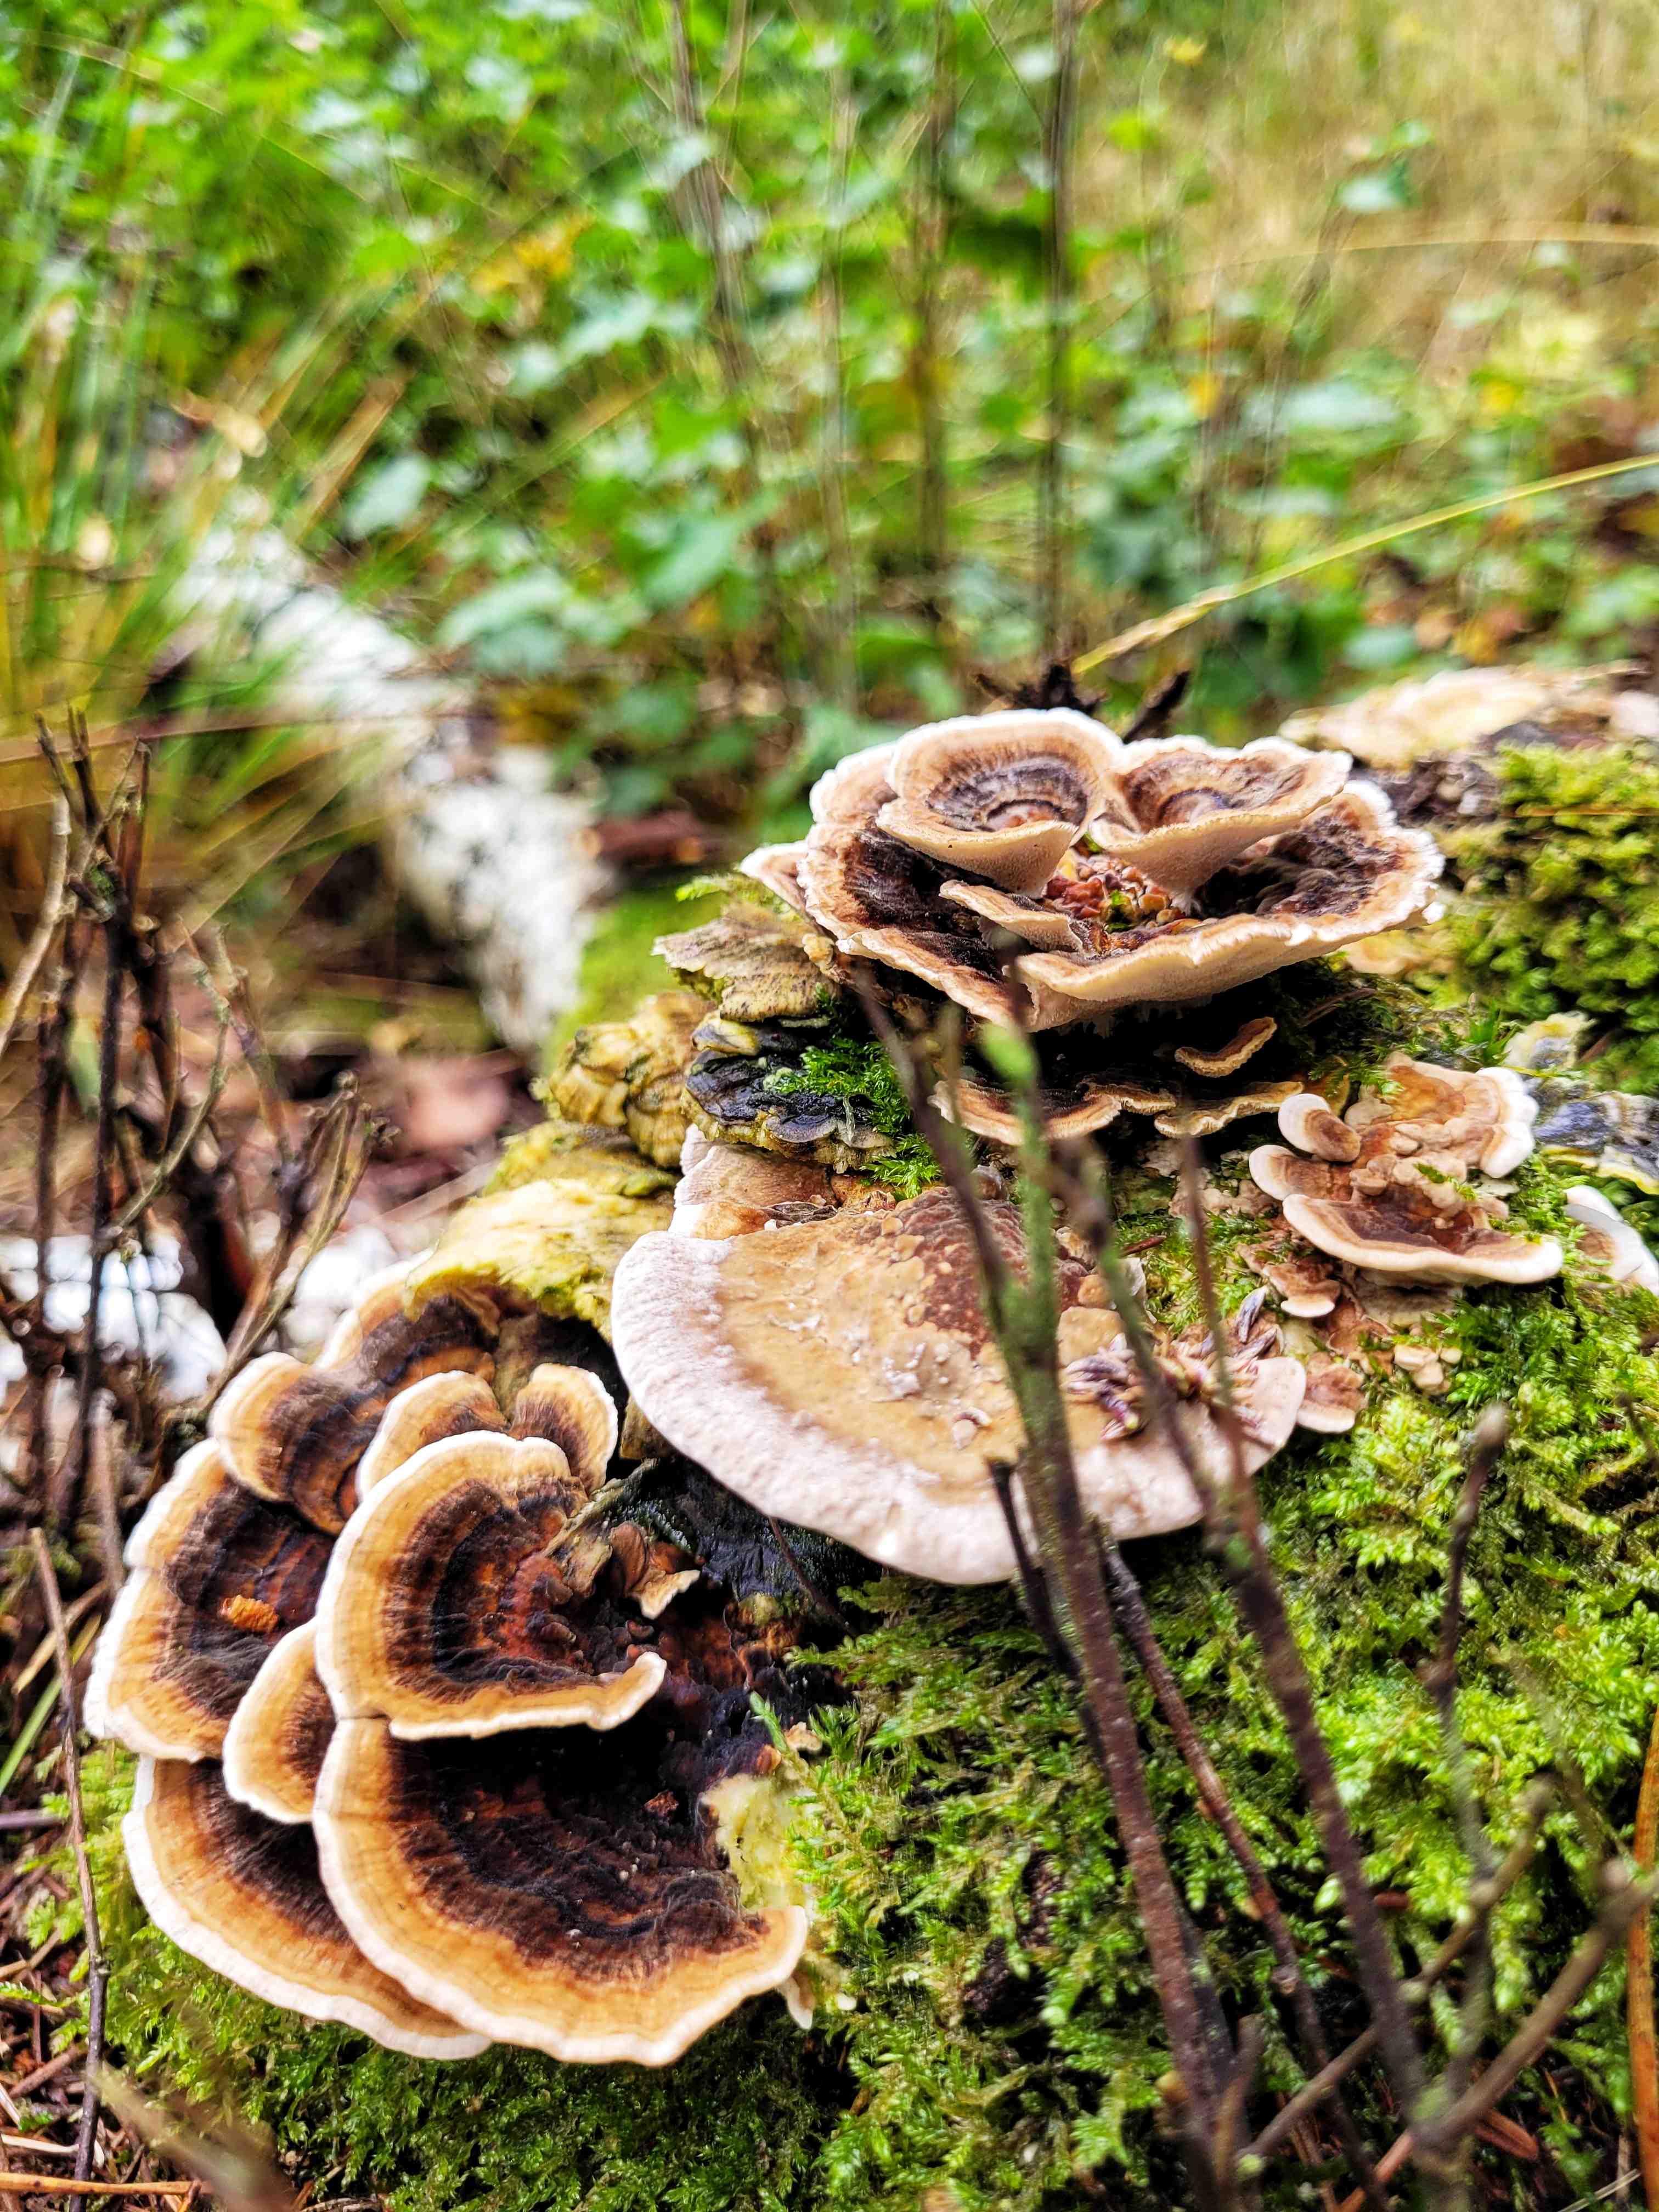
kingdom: Fungi
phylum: Basidiomycota
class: Agaricomycetes
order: Polyporales
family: Polyporaceae
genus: Trametes
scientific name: Trametes versicolor
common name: broget læderporesvamp
